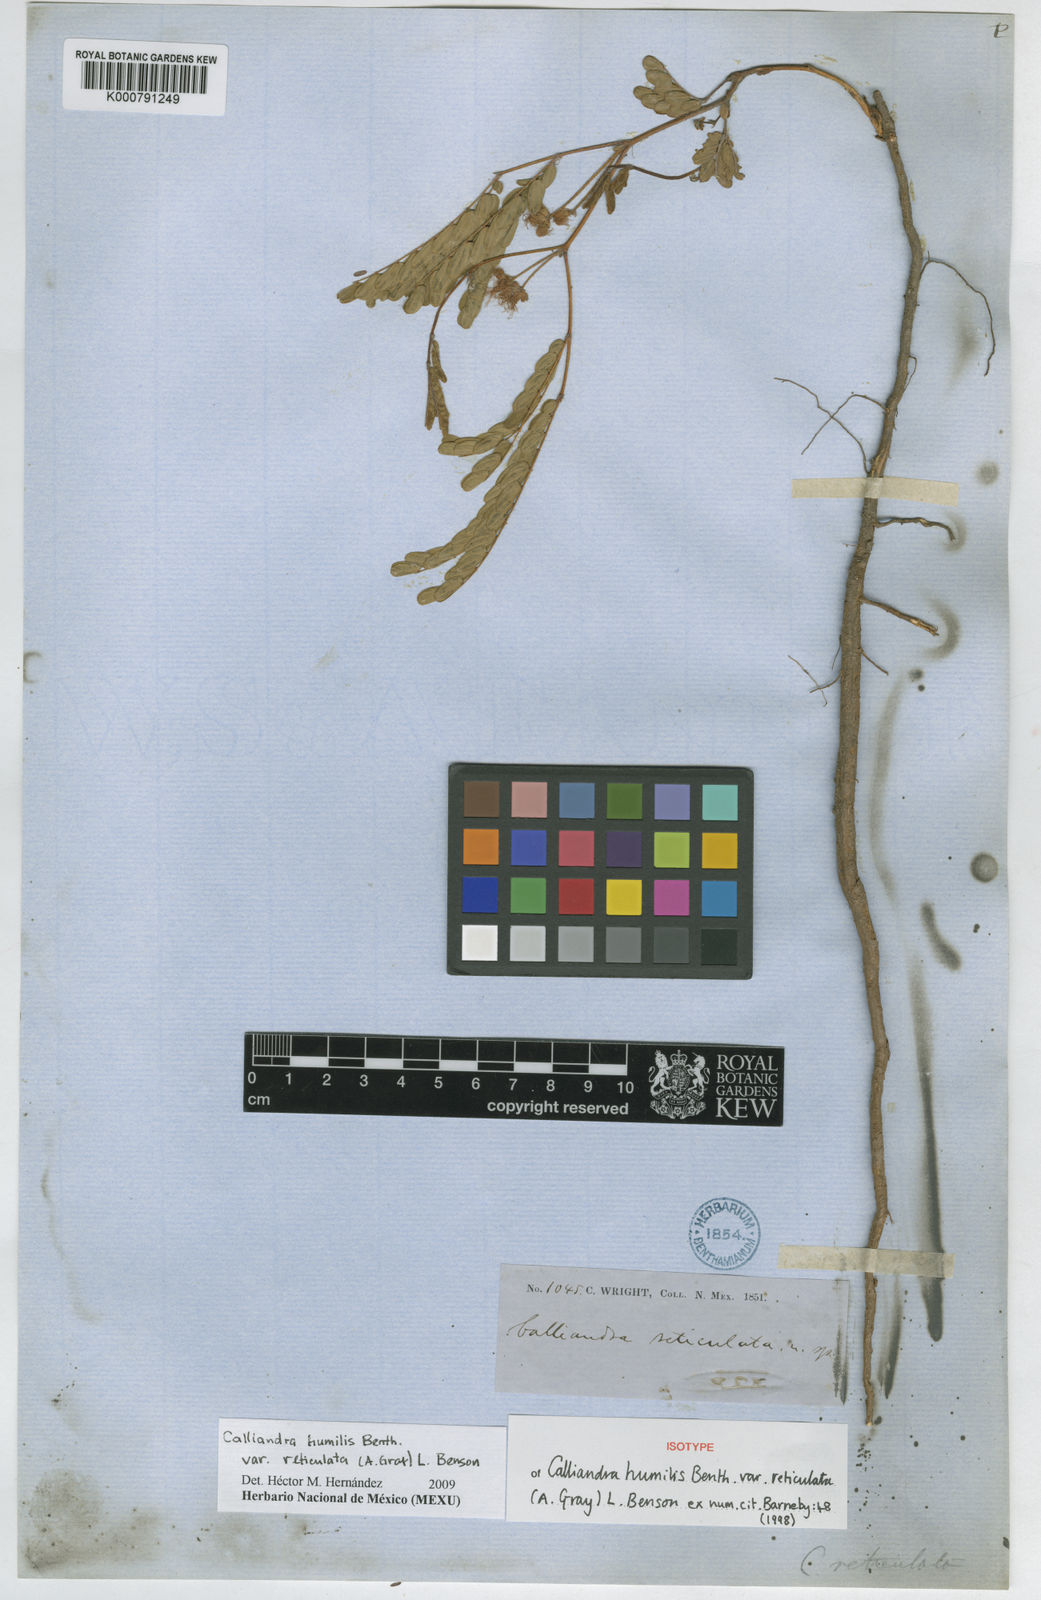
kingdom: Plantae
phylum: Tracheophyta
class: Magnoliopsida
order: Fabales
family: Fabaceae
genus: Calliandra
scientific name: Calliandra humilis
